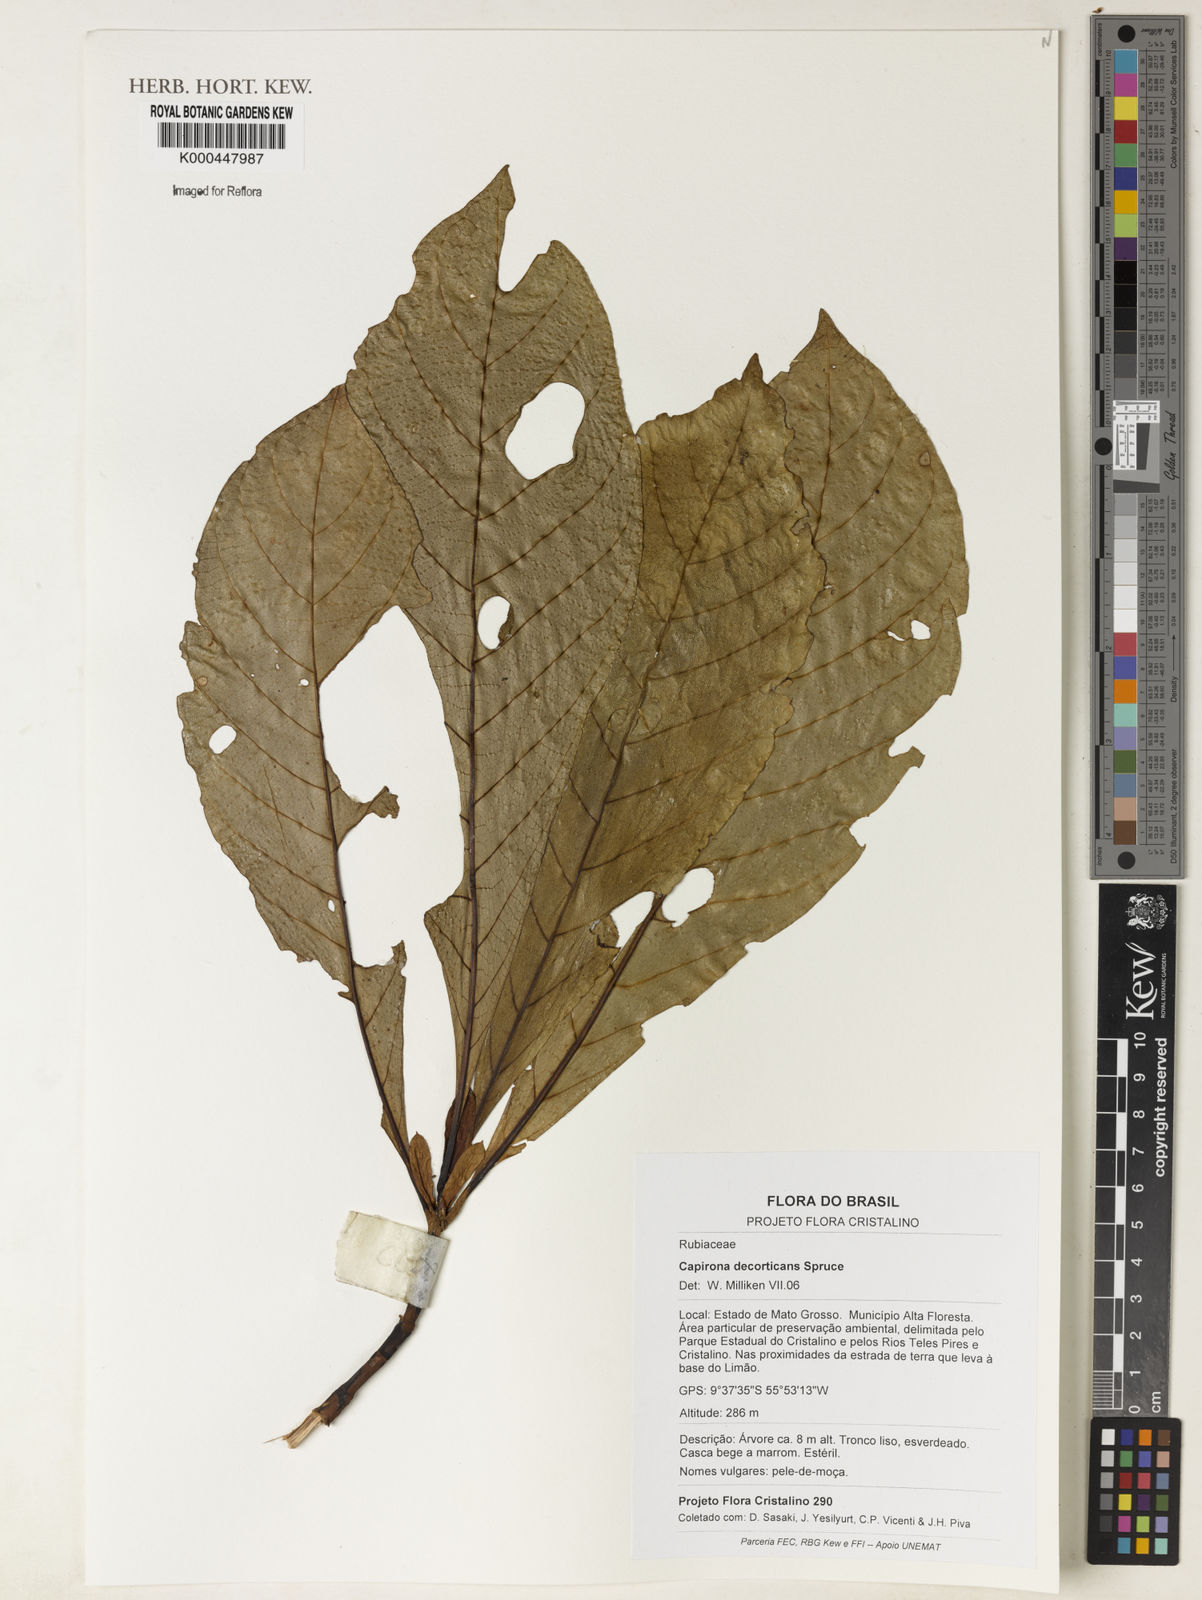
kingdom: Plantae
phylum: Tracheophyta
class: Magnoliopsida
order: Gentianales
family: Rubiaceae
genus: Capirona
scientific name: Capirona macrophylla
